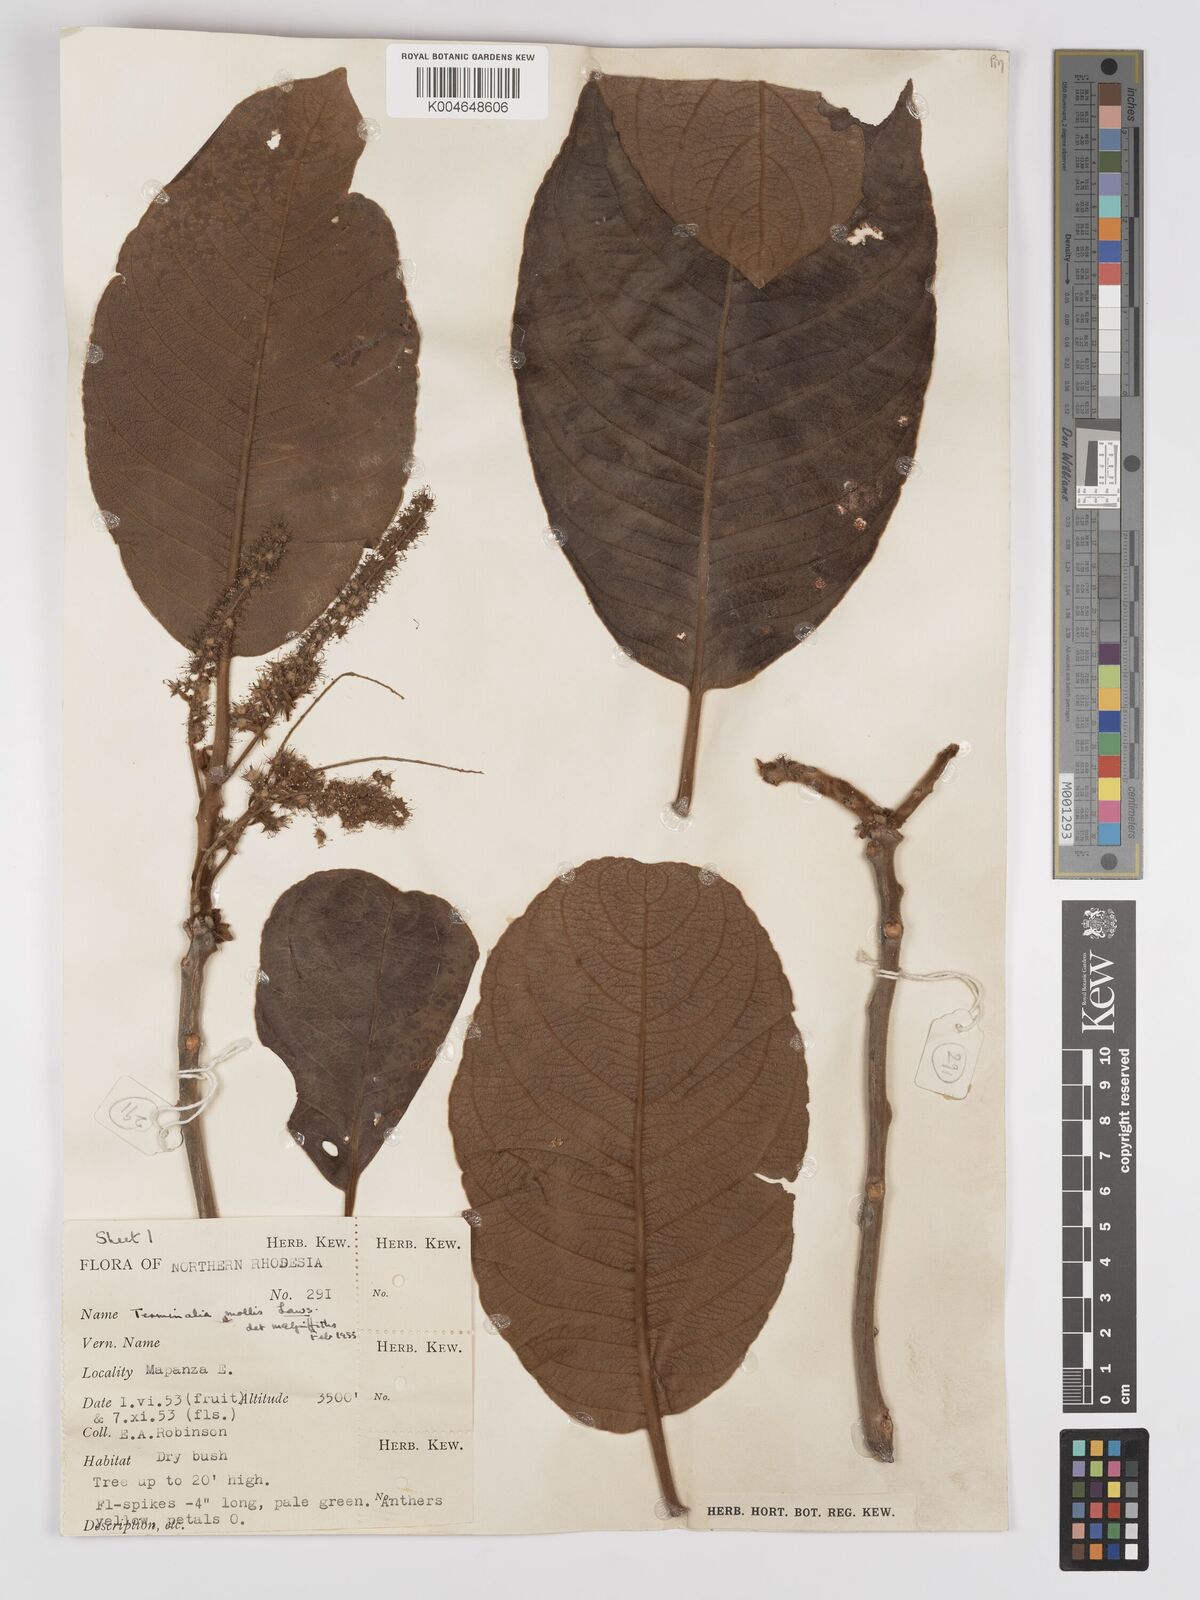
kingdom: Plantae
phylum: Tracheophyta
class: Magnoliopsida
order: Myrtales
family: Combretaceae
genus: Terminalia
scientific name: Terminalia
